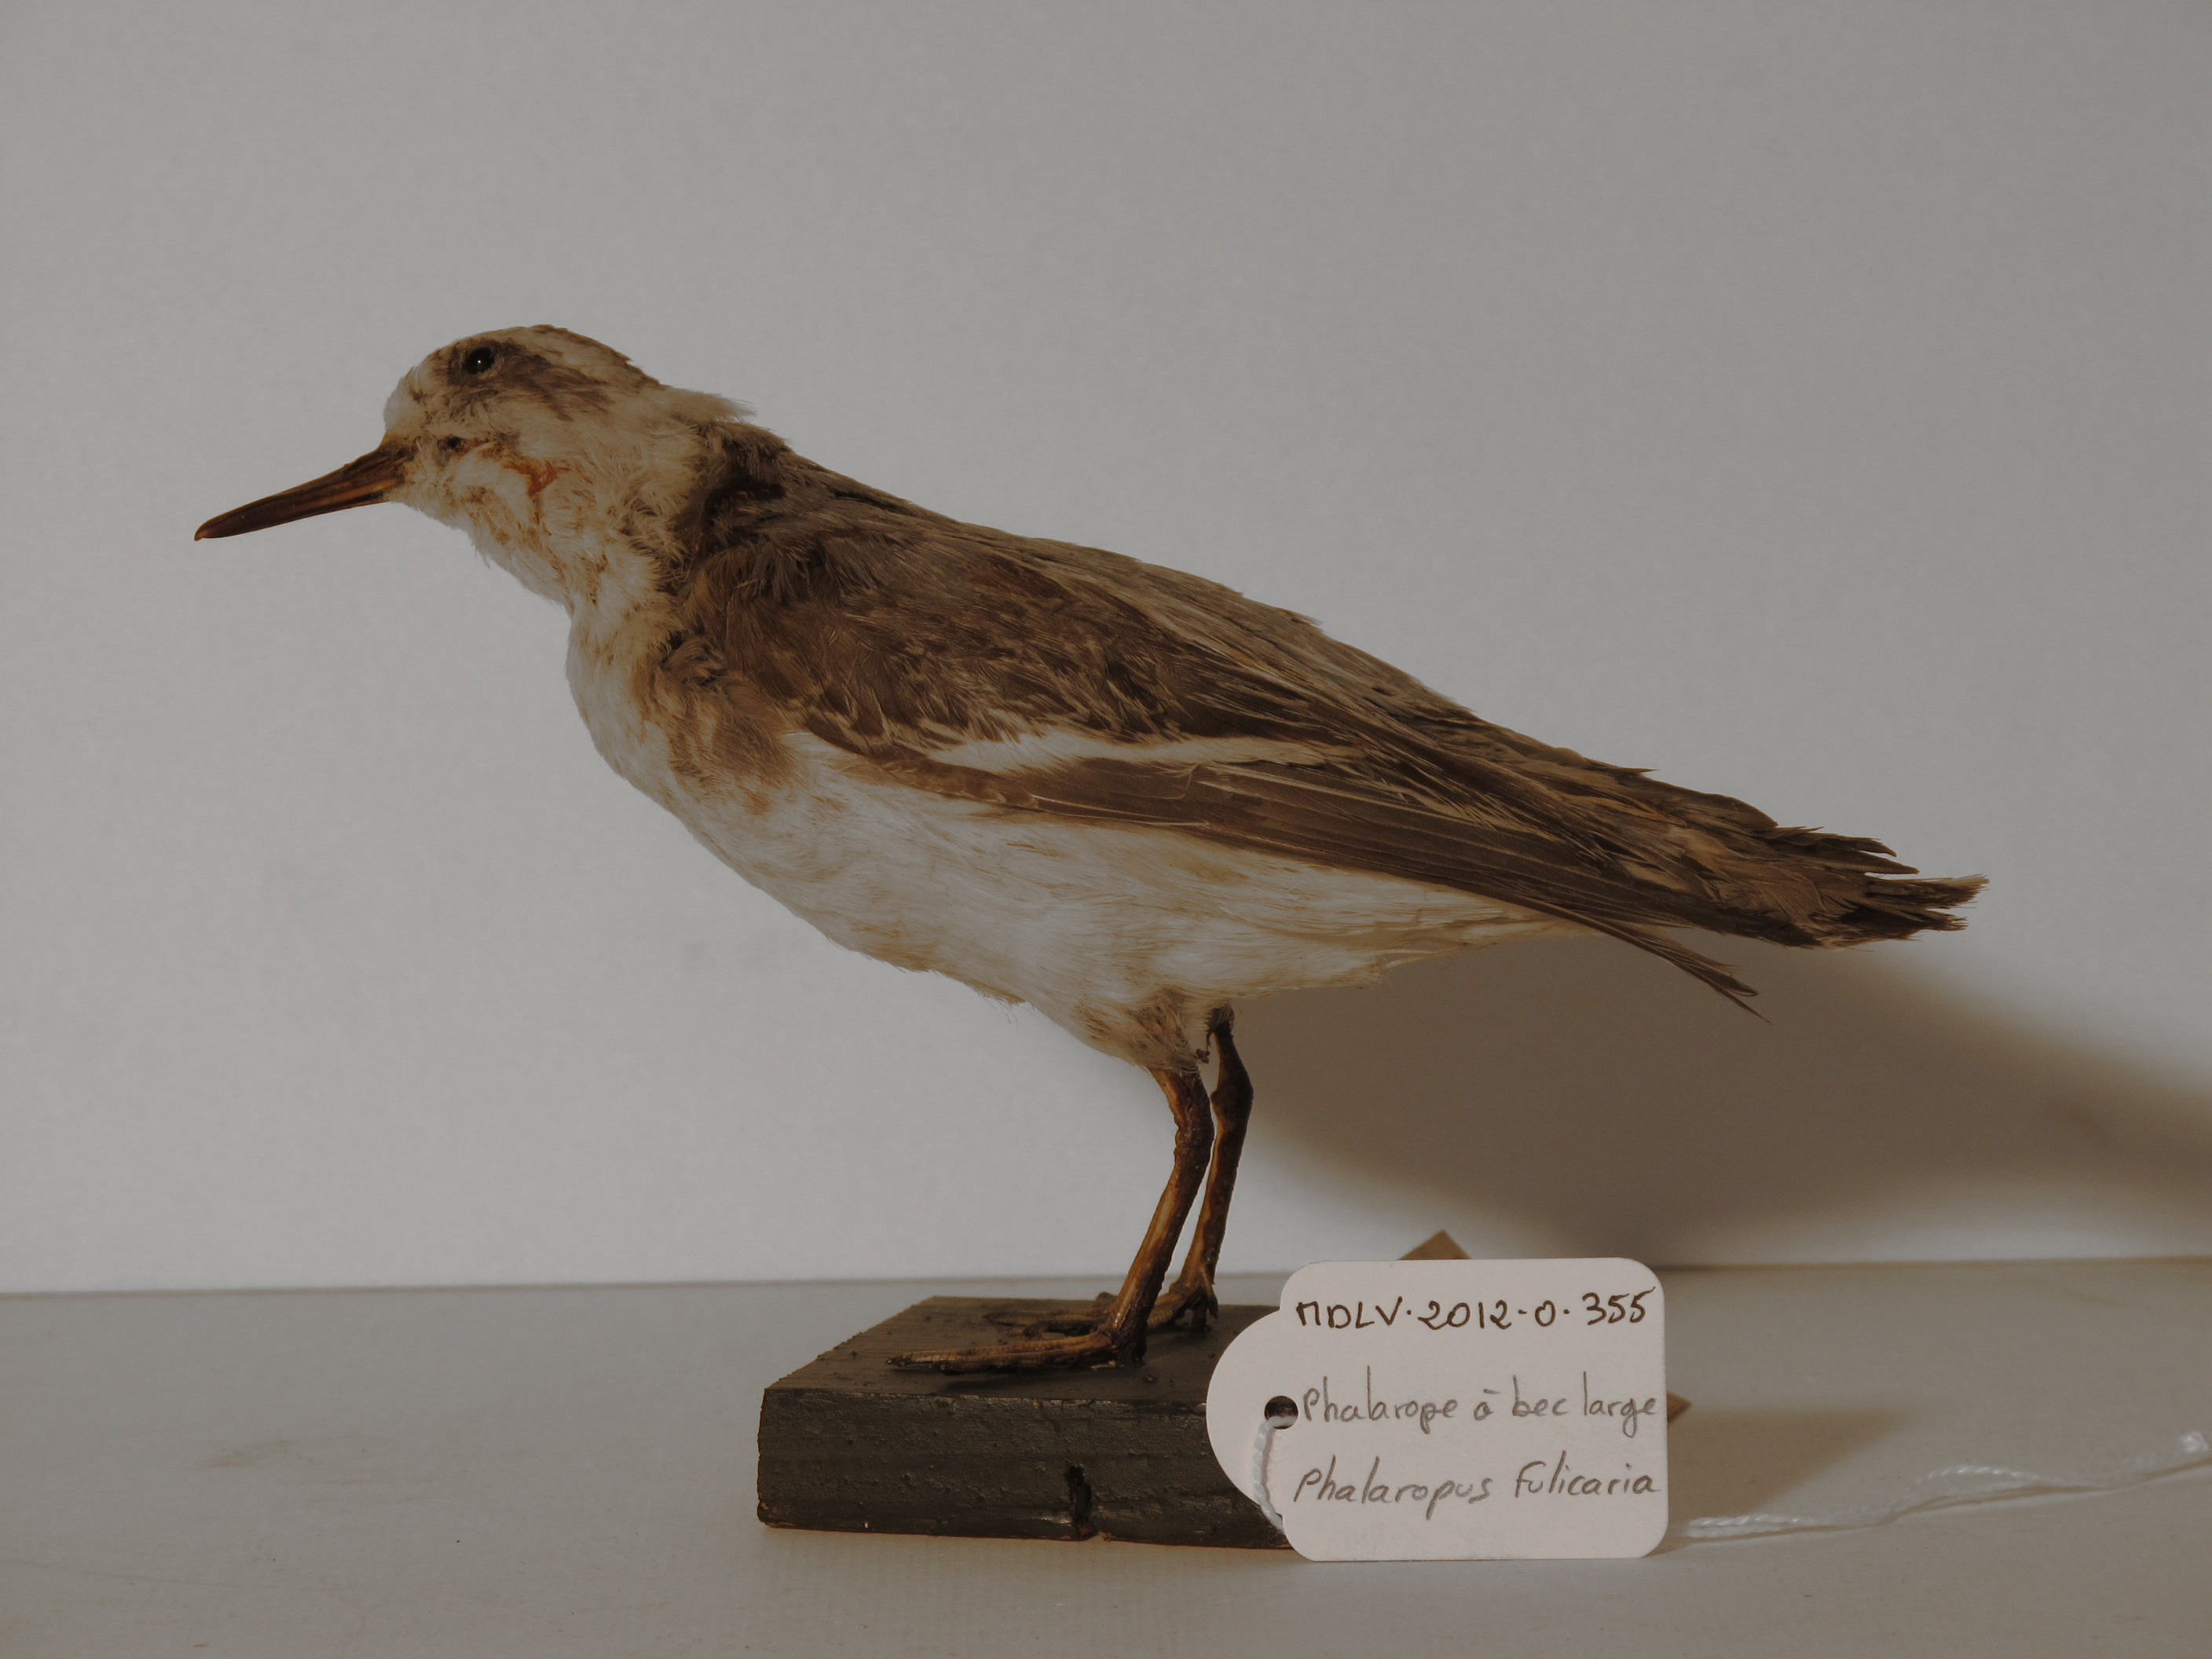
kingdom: Animalia
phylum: Chordata
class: Aves
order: Charadriiformes
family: Scolopacidae
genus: Phalaropus
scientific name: Phalaropus fulicarius
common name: Red Phalarope
